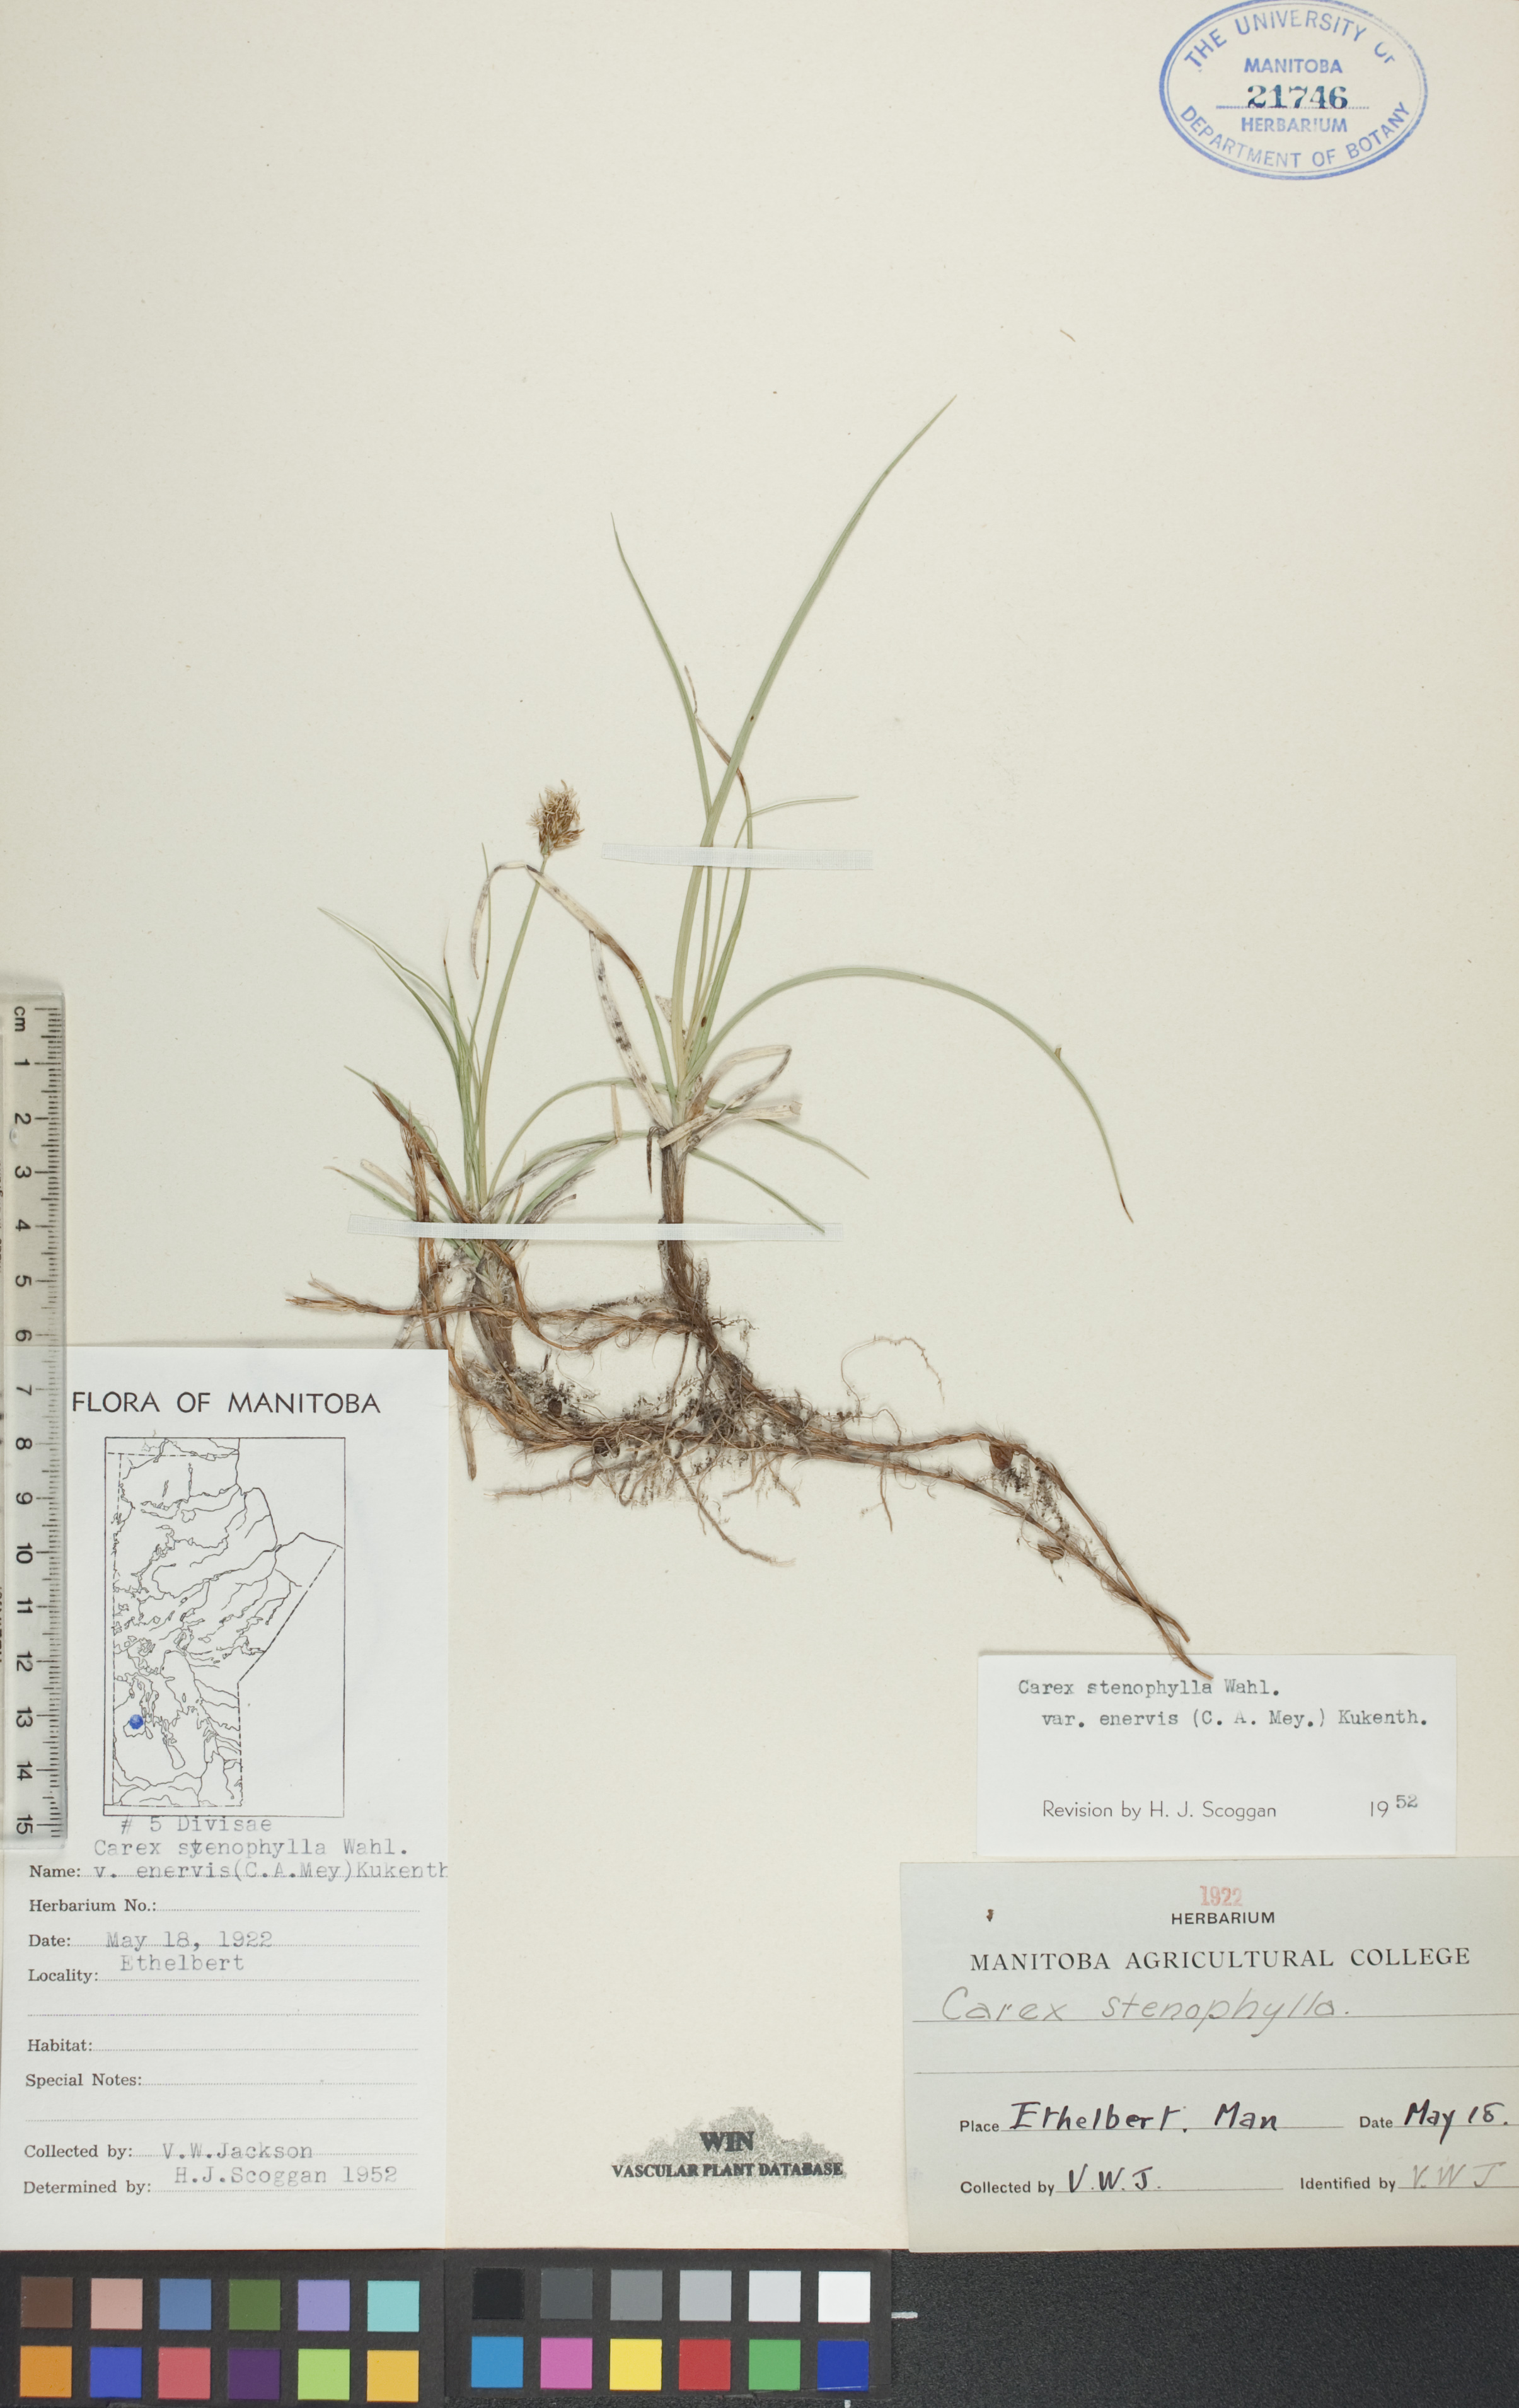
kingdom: Plantae
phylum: Tracheophyta
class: Liliopsida
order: Poales
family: Cyperaceae
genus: Carex
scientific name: Carex enervis
